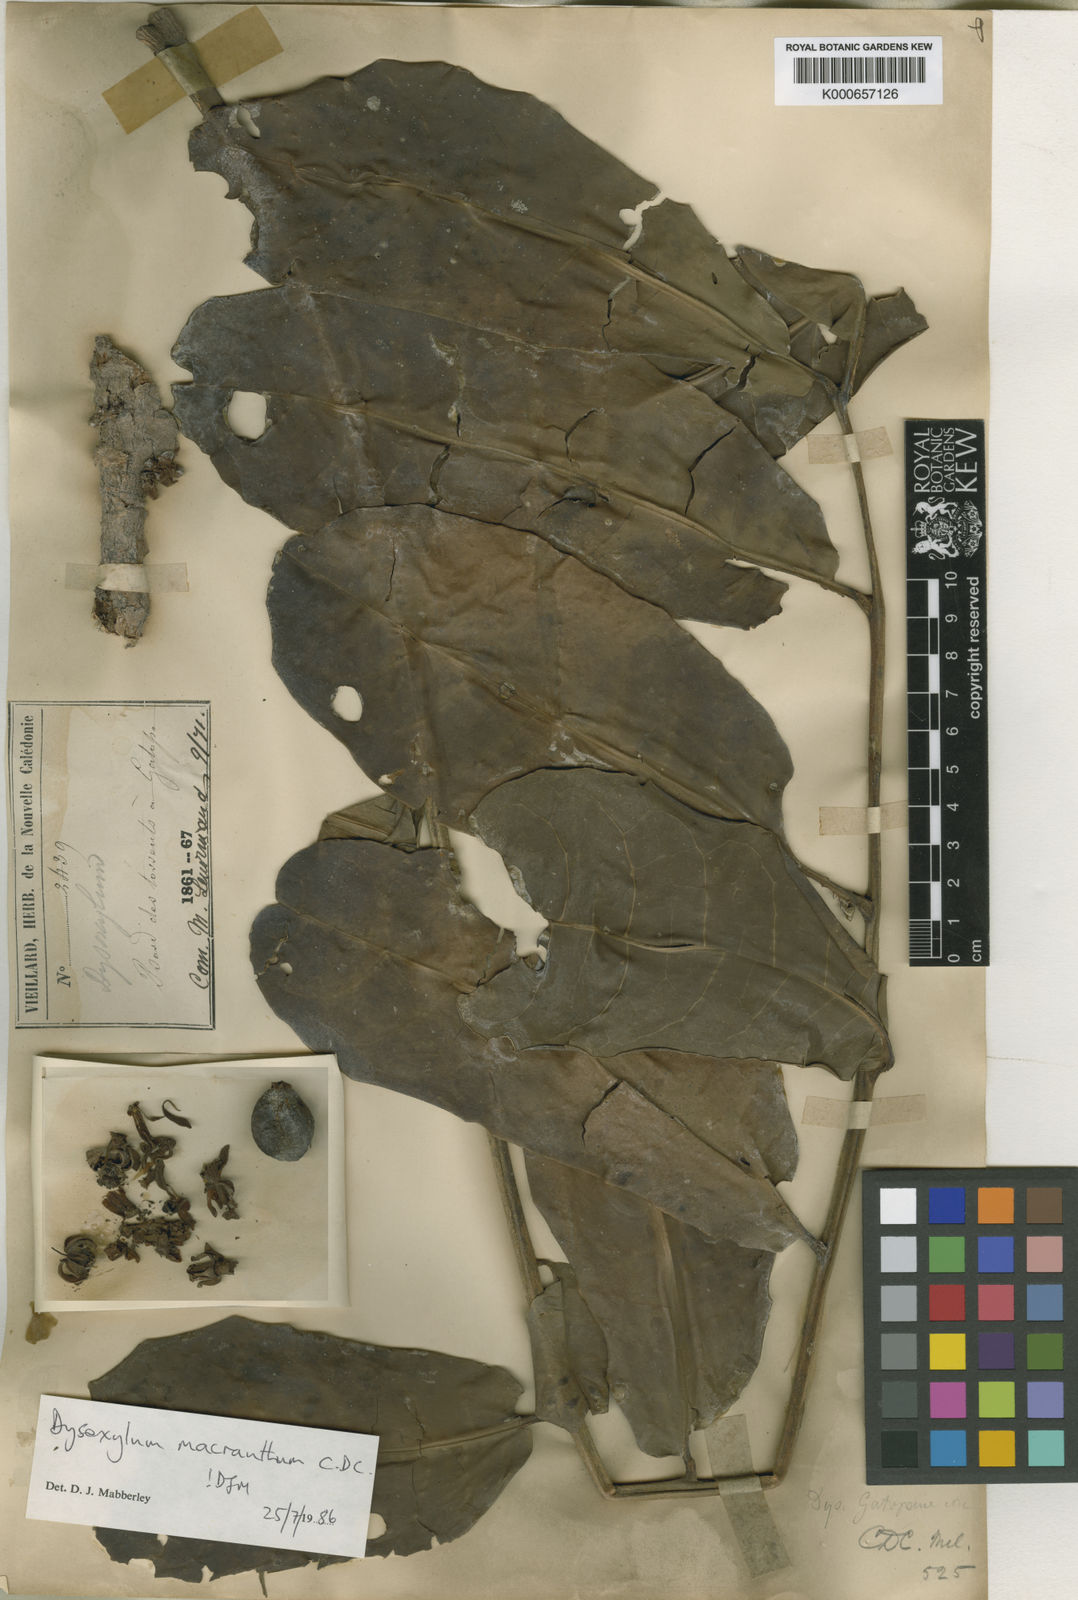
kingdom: Plantae
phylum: Tracheophyta
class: Magnoliopsida
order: Sapindales
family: Meliaceae
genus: Didymocheton
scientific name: Didymocheton macranthus
